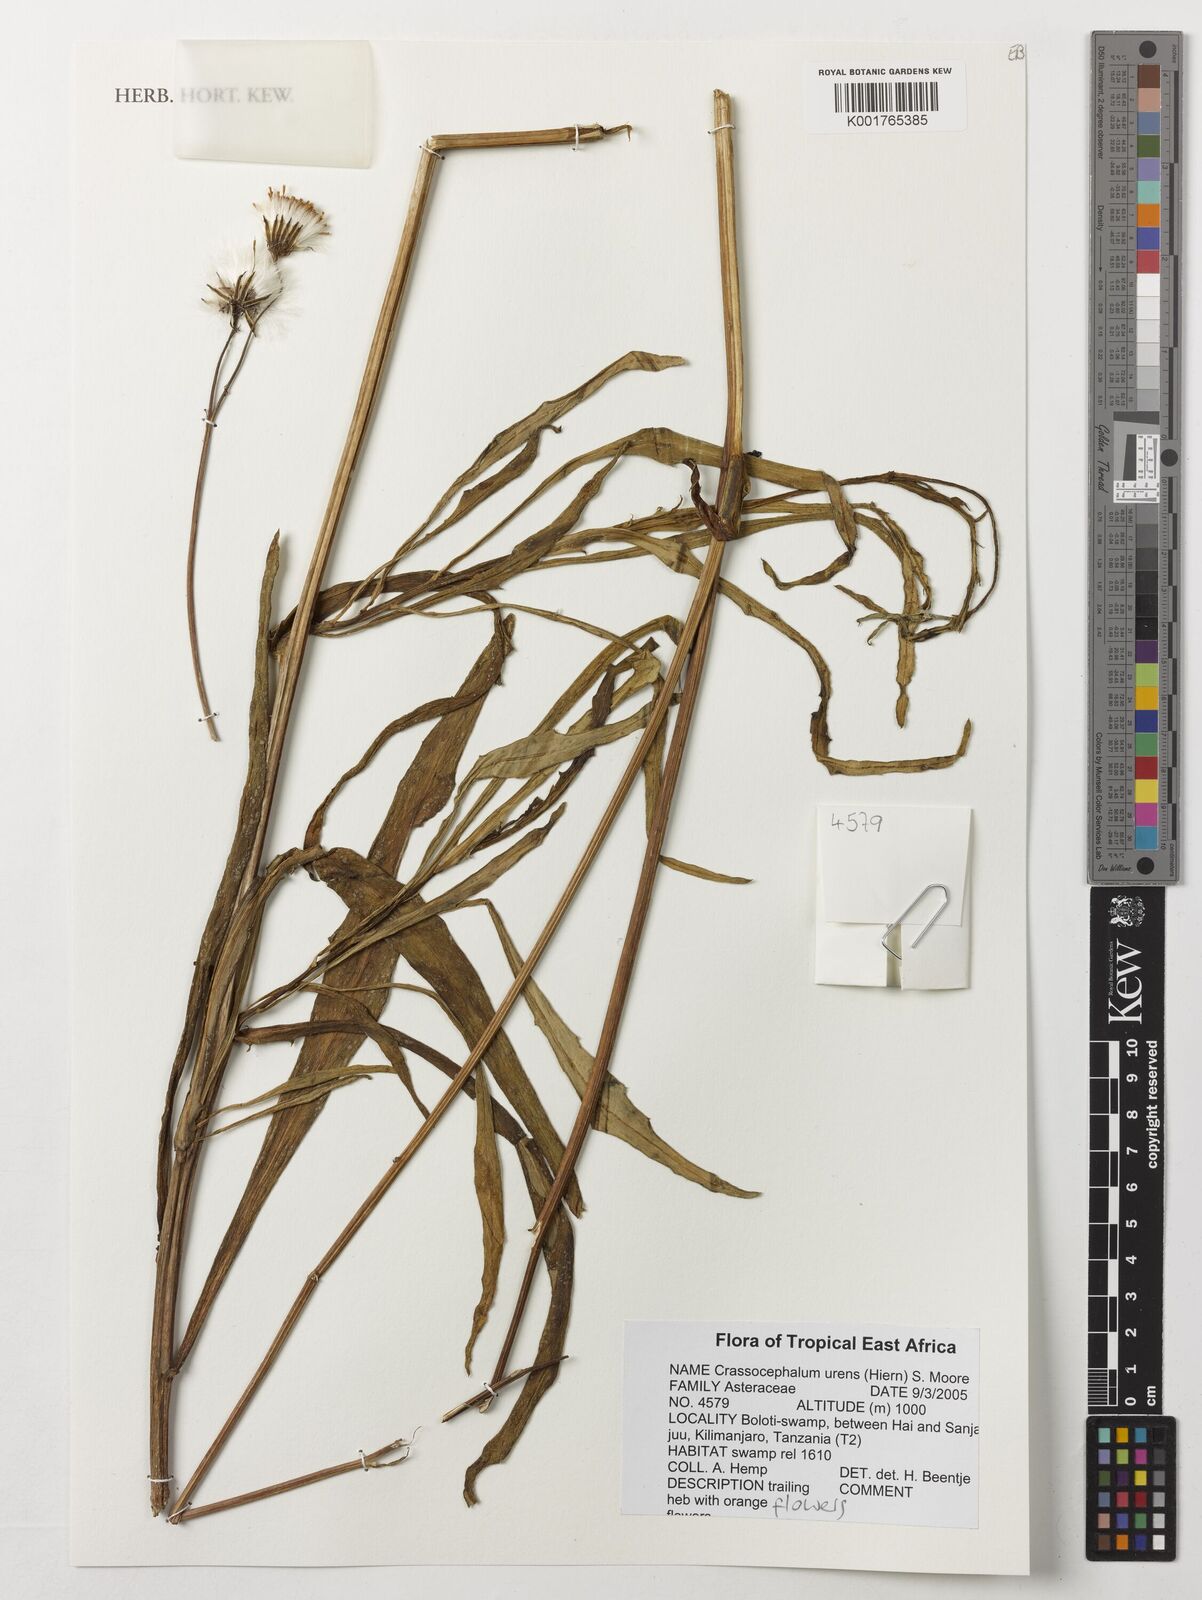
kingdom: Plantae
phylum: Tracheophyta
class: Magnoliopsida
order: Asterales
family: Asteraceae
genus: Crassocephalum
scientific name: Crassocephalum uvens
